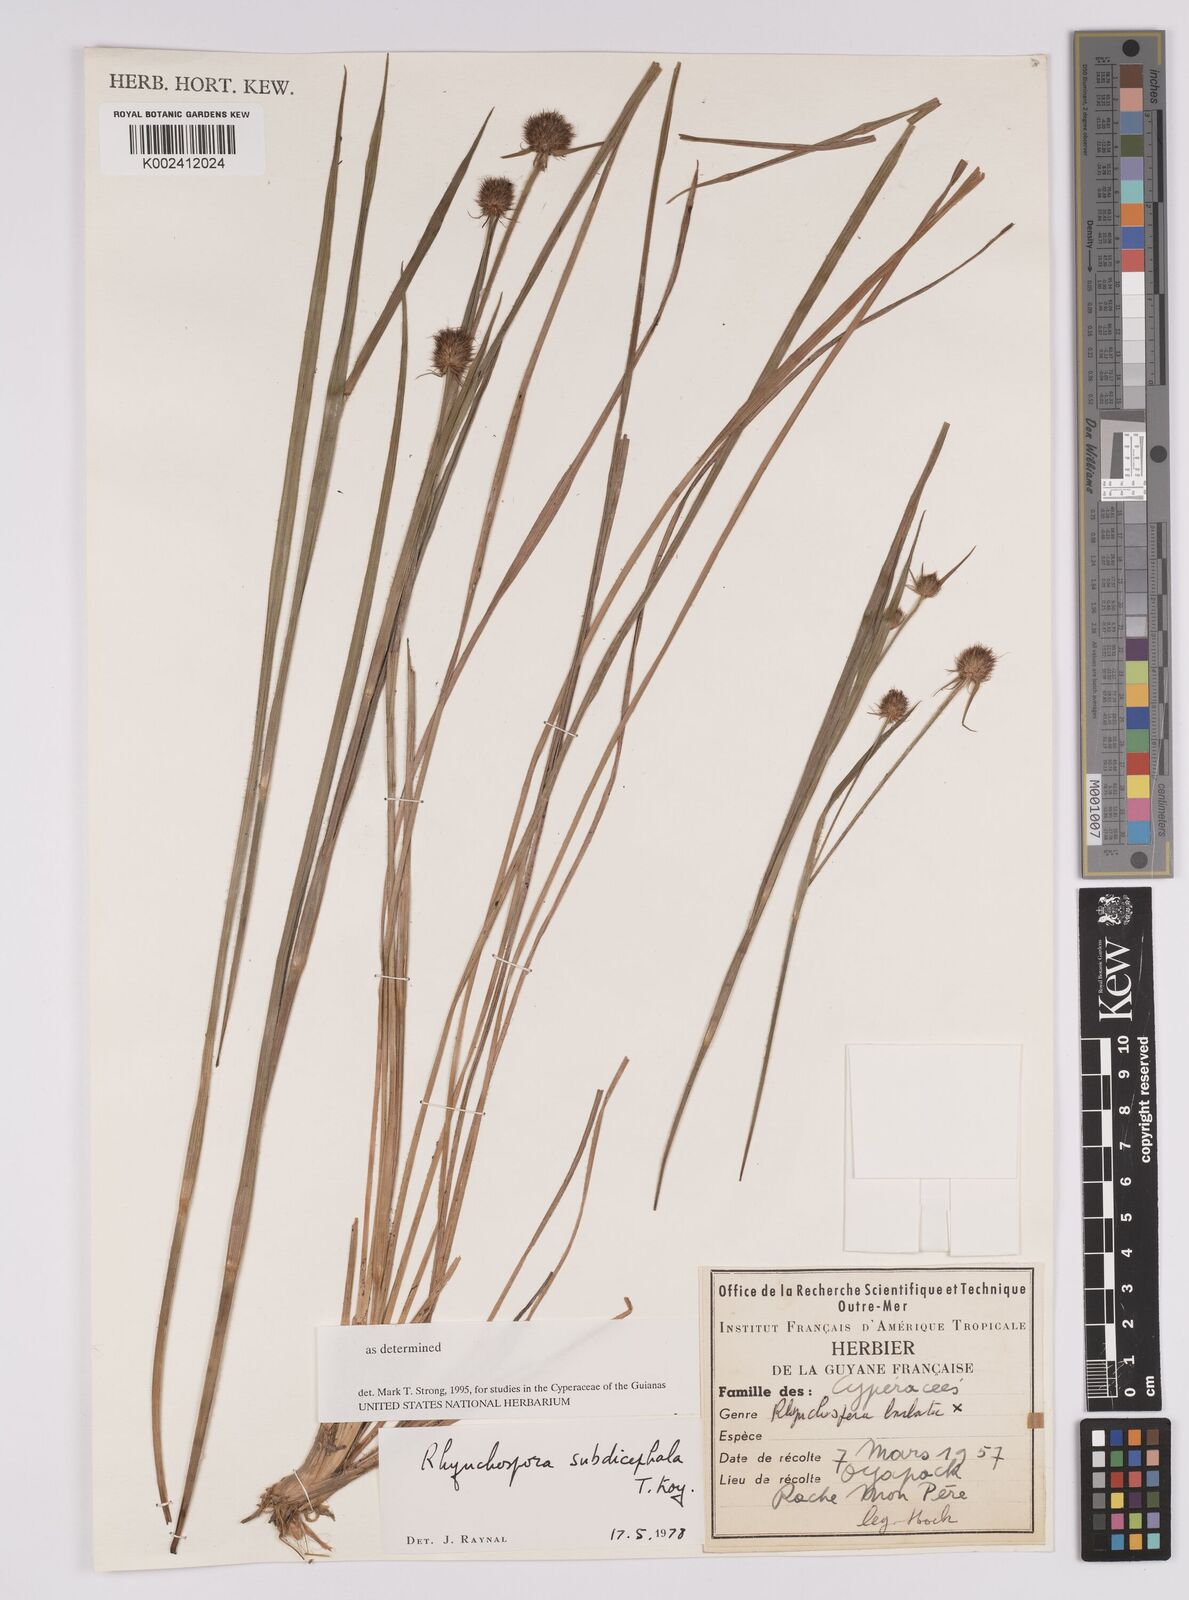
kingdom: Plantae
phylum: Tracheophyta
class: Liliopsida
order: Poales
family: Cyperaceae
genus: Rhynchospora
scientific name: Rhynchospora subdicephala
